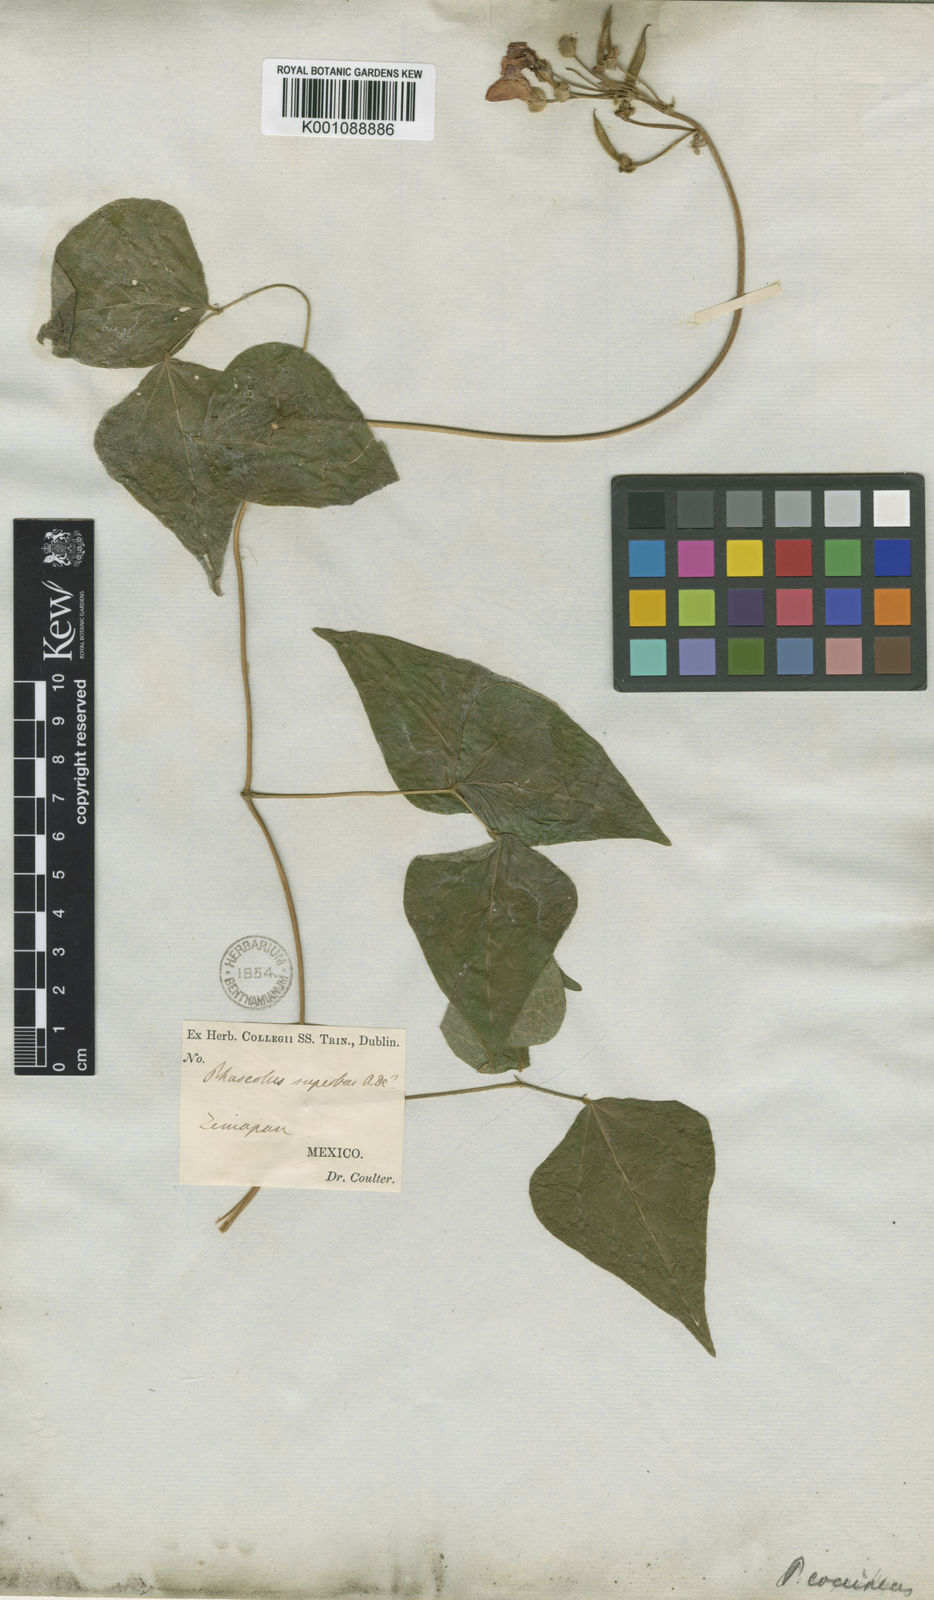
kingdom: Plantae
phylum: Tracheophyta
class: Magnoliopsida
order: Fabales
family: Fabaceae
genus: Phaseolus
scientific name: Phaseolus coccineus
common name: Runner bean
